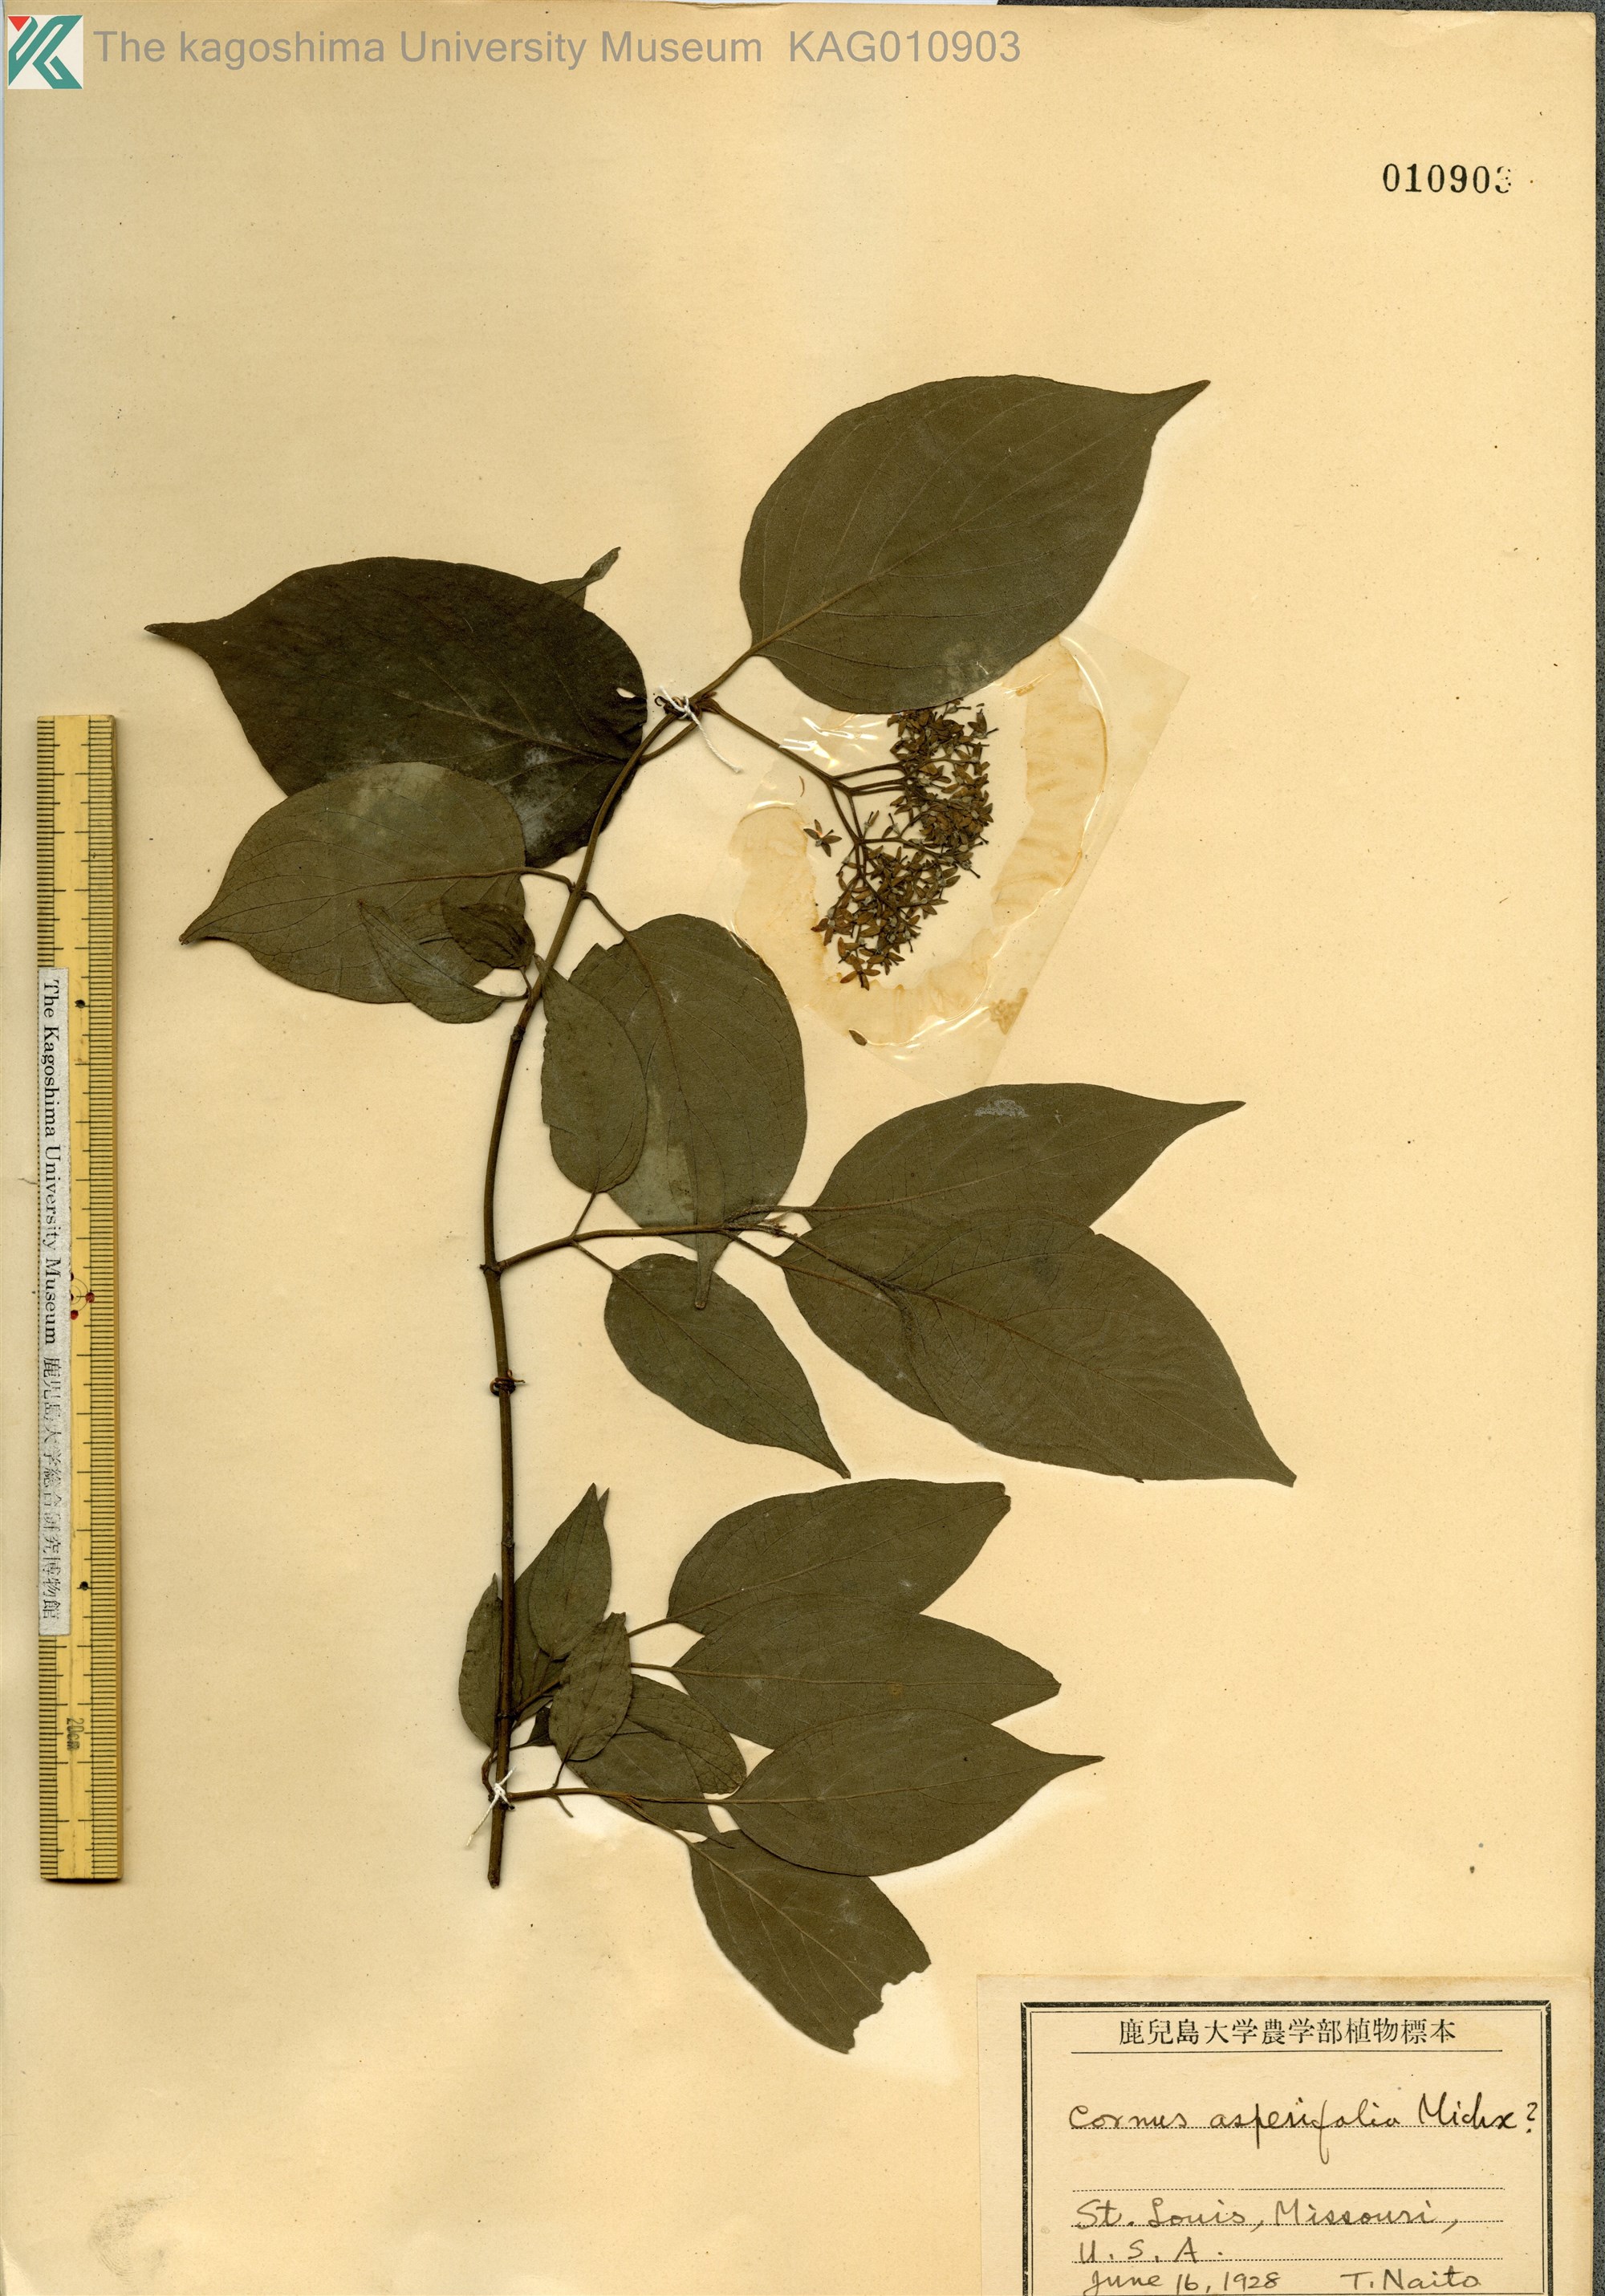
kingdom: Plantae
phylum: Tracheophyta
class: Magnoliopsida
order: Cornales
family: Cornaceae
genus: Cornus
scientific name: Cornus asperifolia
